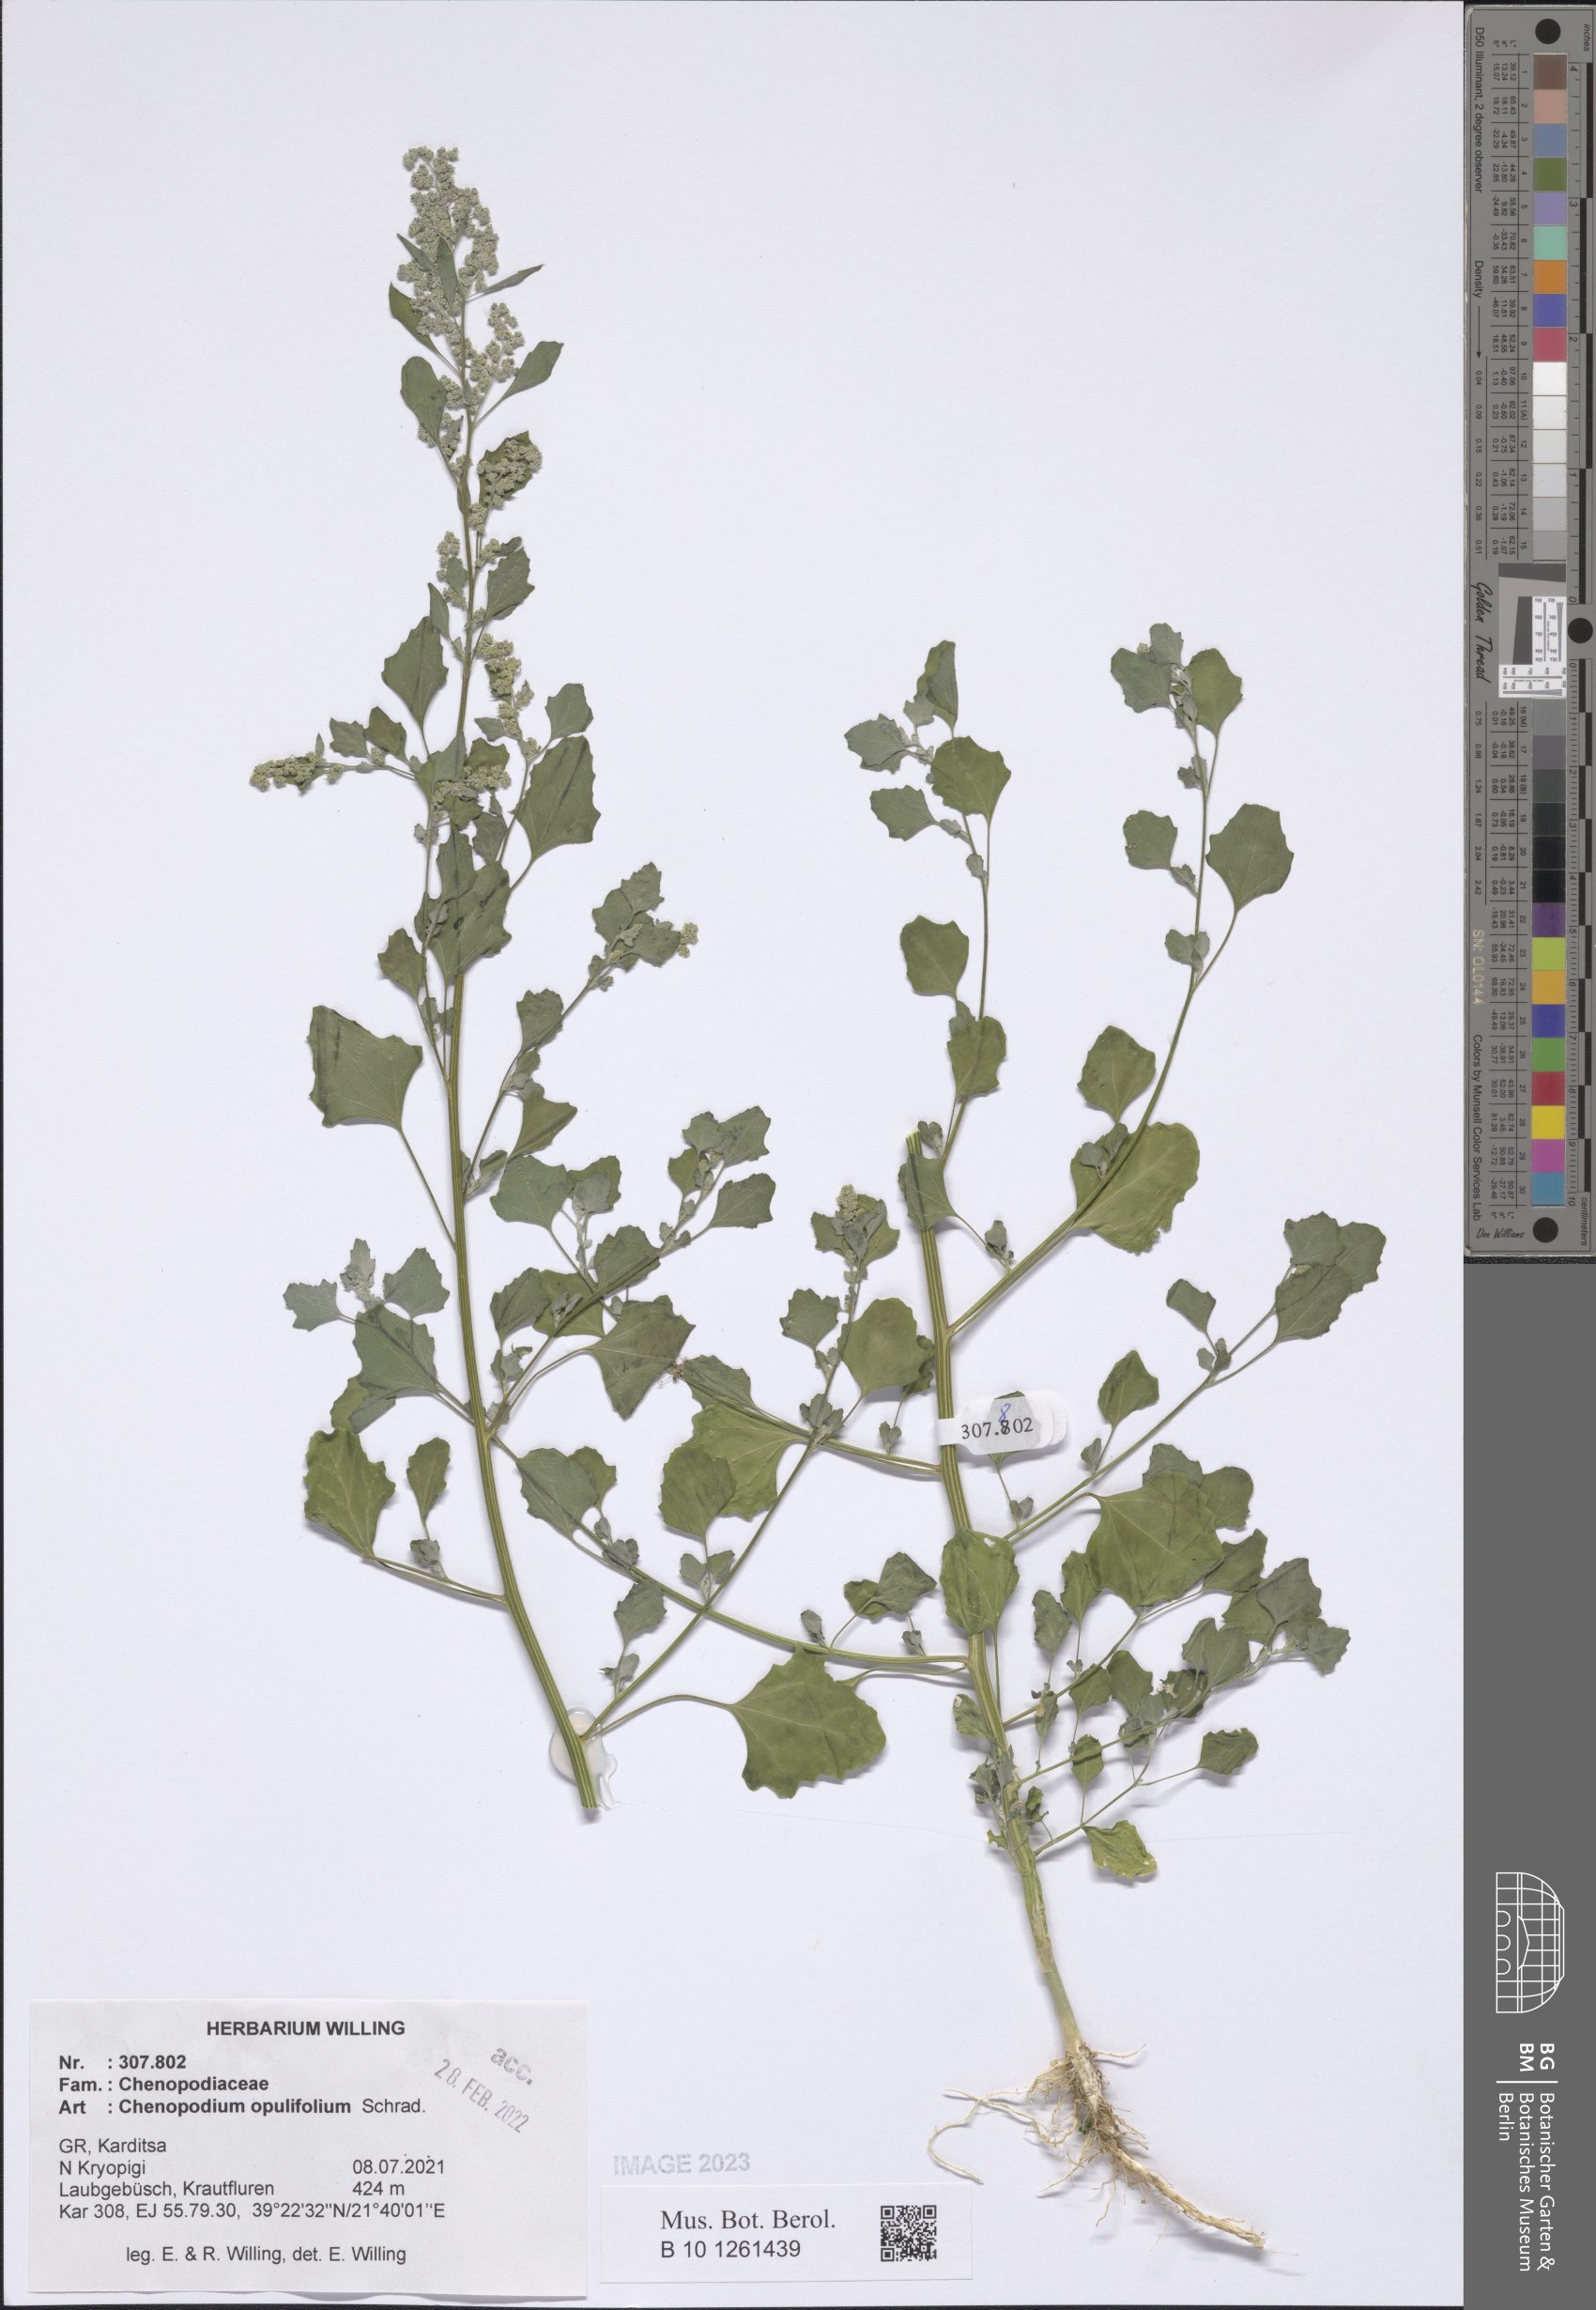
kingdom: Plantae
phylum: Tracheophyta
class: Magnoliopsida
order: Caryophyllales
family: Amaranthaceae
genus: Chenopodium
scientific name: Chenopodium opulifolium
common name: Grey goosefoot
